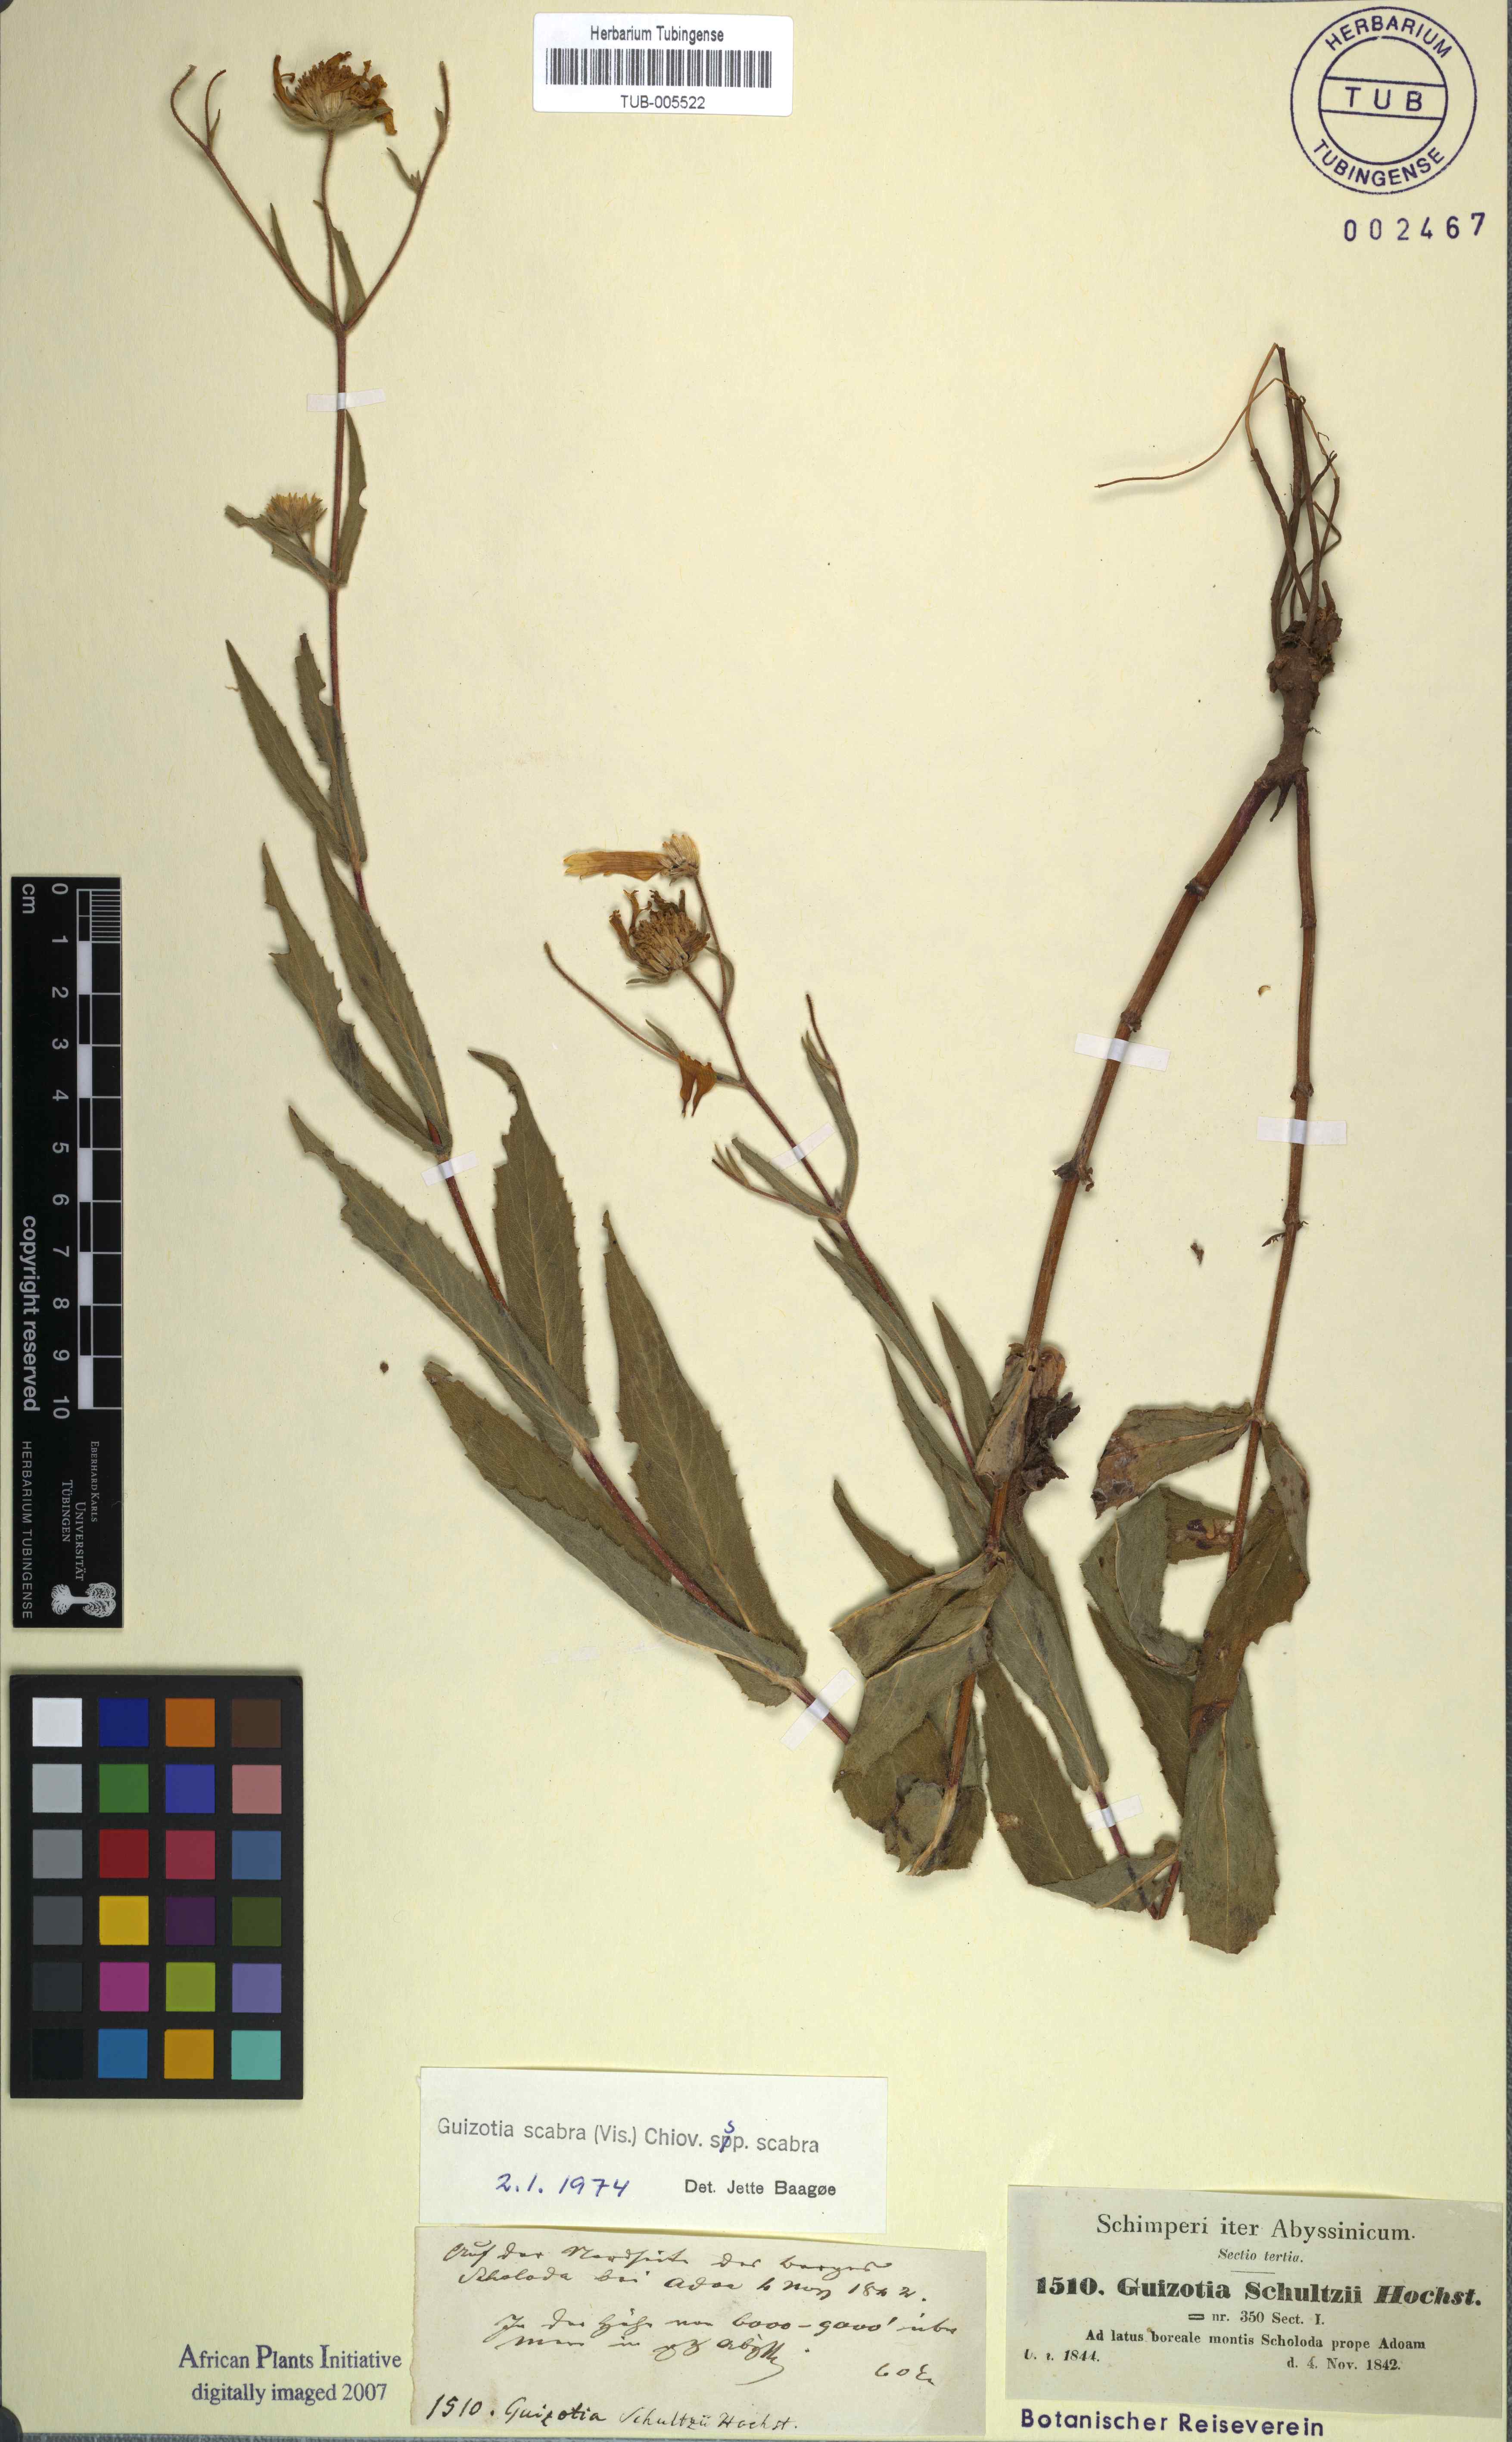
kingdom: Plantae
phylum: Tracheophyta
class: Magnoliopsida
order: Asterales
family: Asteraceae
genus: Guizotia
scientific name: Guizotia scabra
